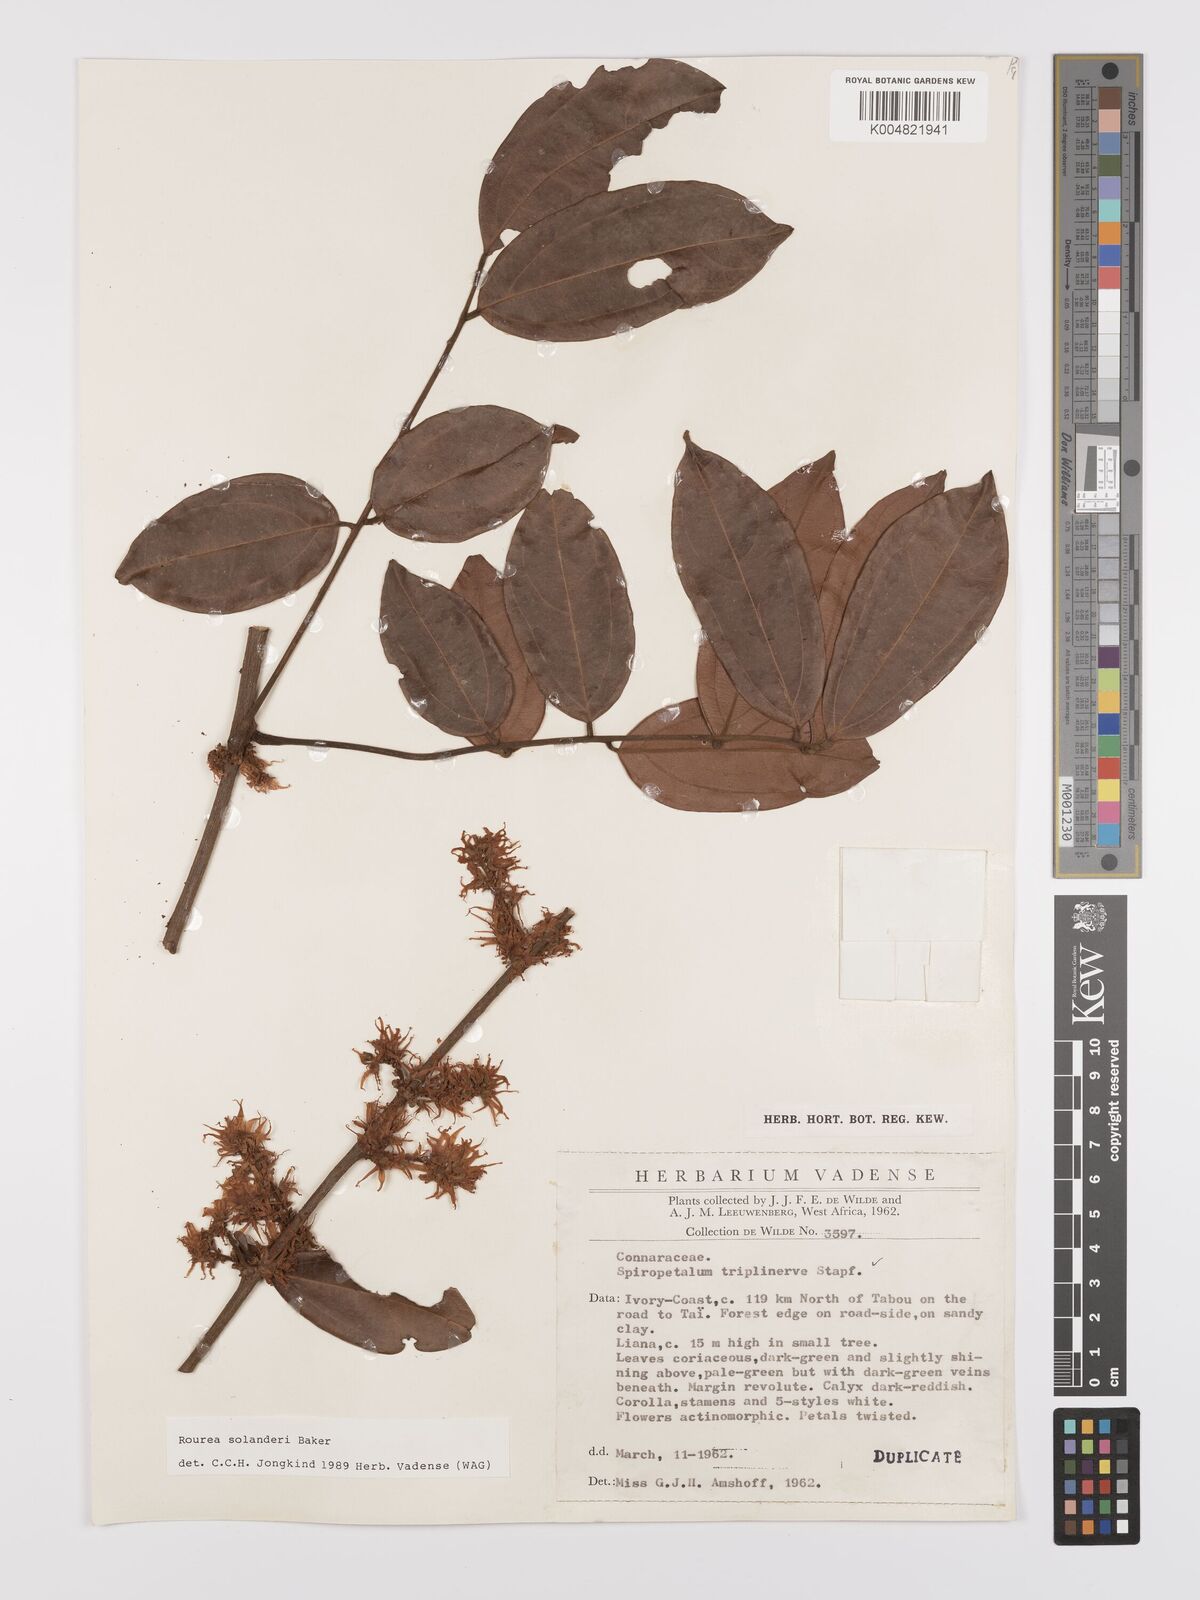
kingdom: Plantae
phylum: Tracheophyta
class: Magnoliopsida
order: Oxalidales
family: Connaraceae
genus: Rourea
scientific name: Rourea solanderi
